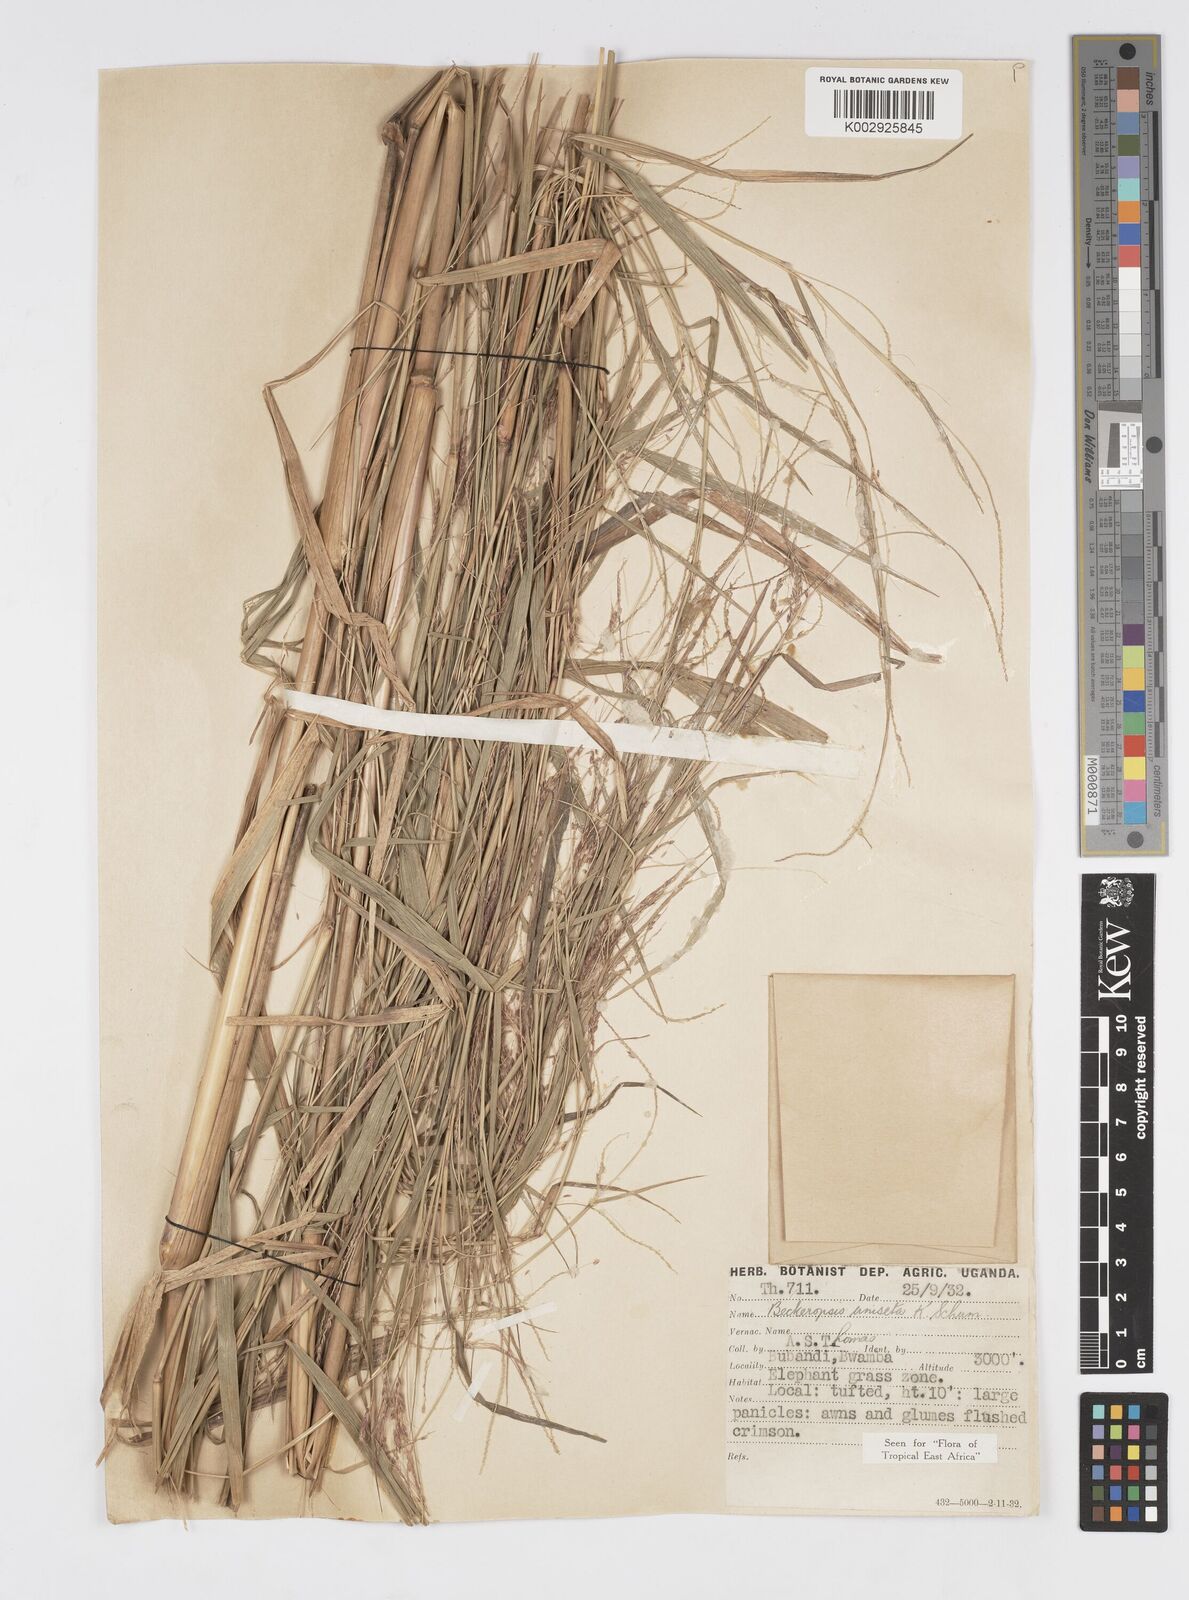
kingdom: Plantae
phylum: Tracheophyta
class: Liliopsida
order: Poales
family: Poaceae
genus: Cenchrus
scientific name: Cenchrus unisetus
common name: Natal grass
